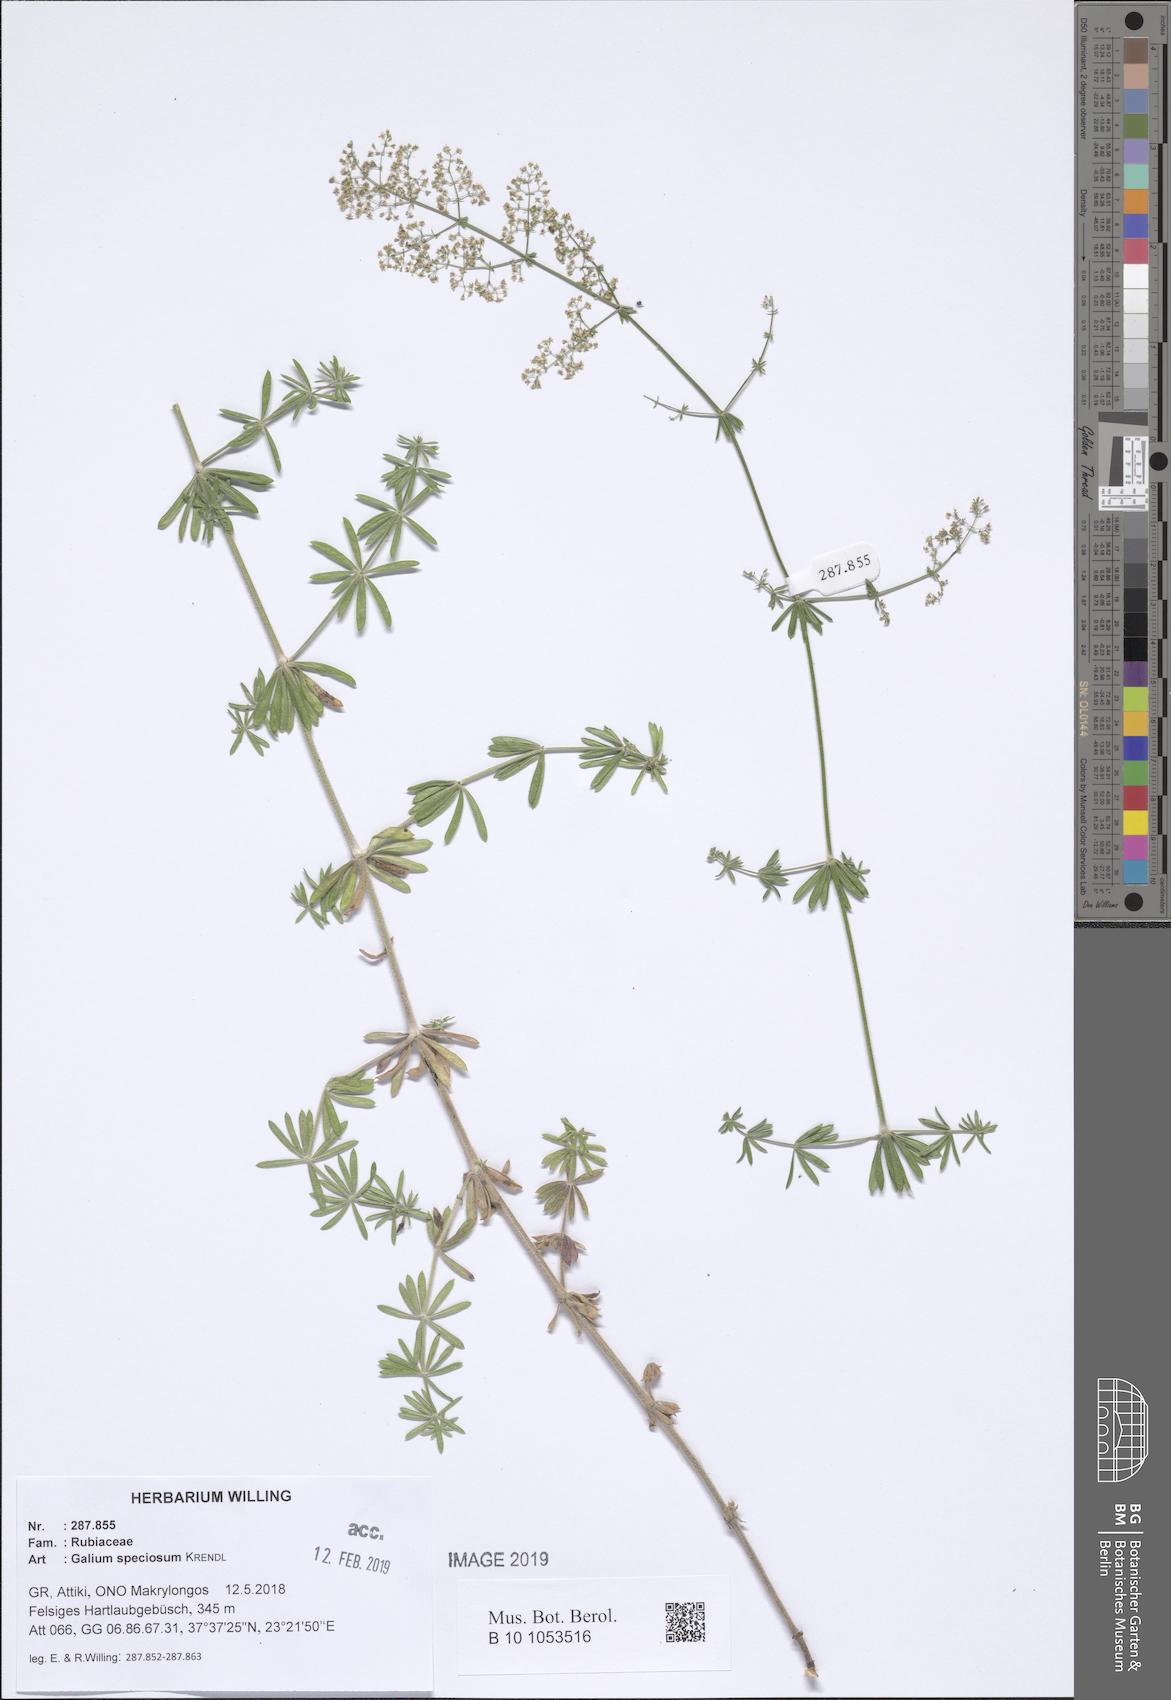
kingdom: Plantae
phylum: Tracheophyta
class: Magnoliopsida
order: Gentianales
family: Rubiaceae
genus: Galium
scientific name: Galium speciosum
